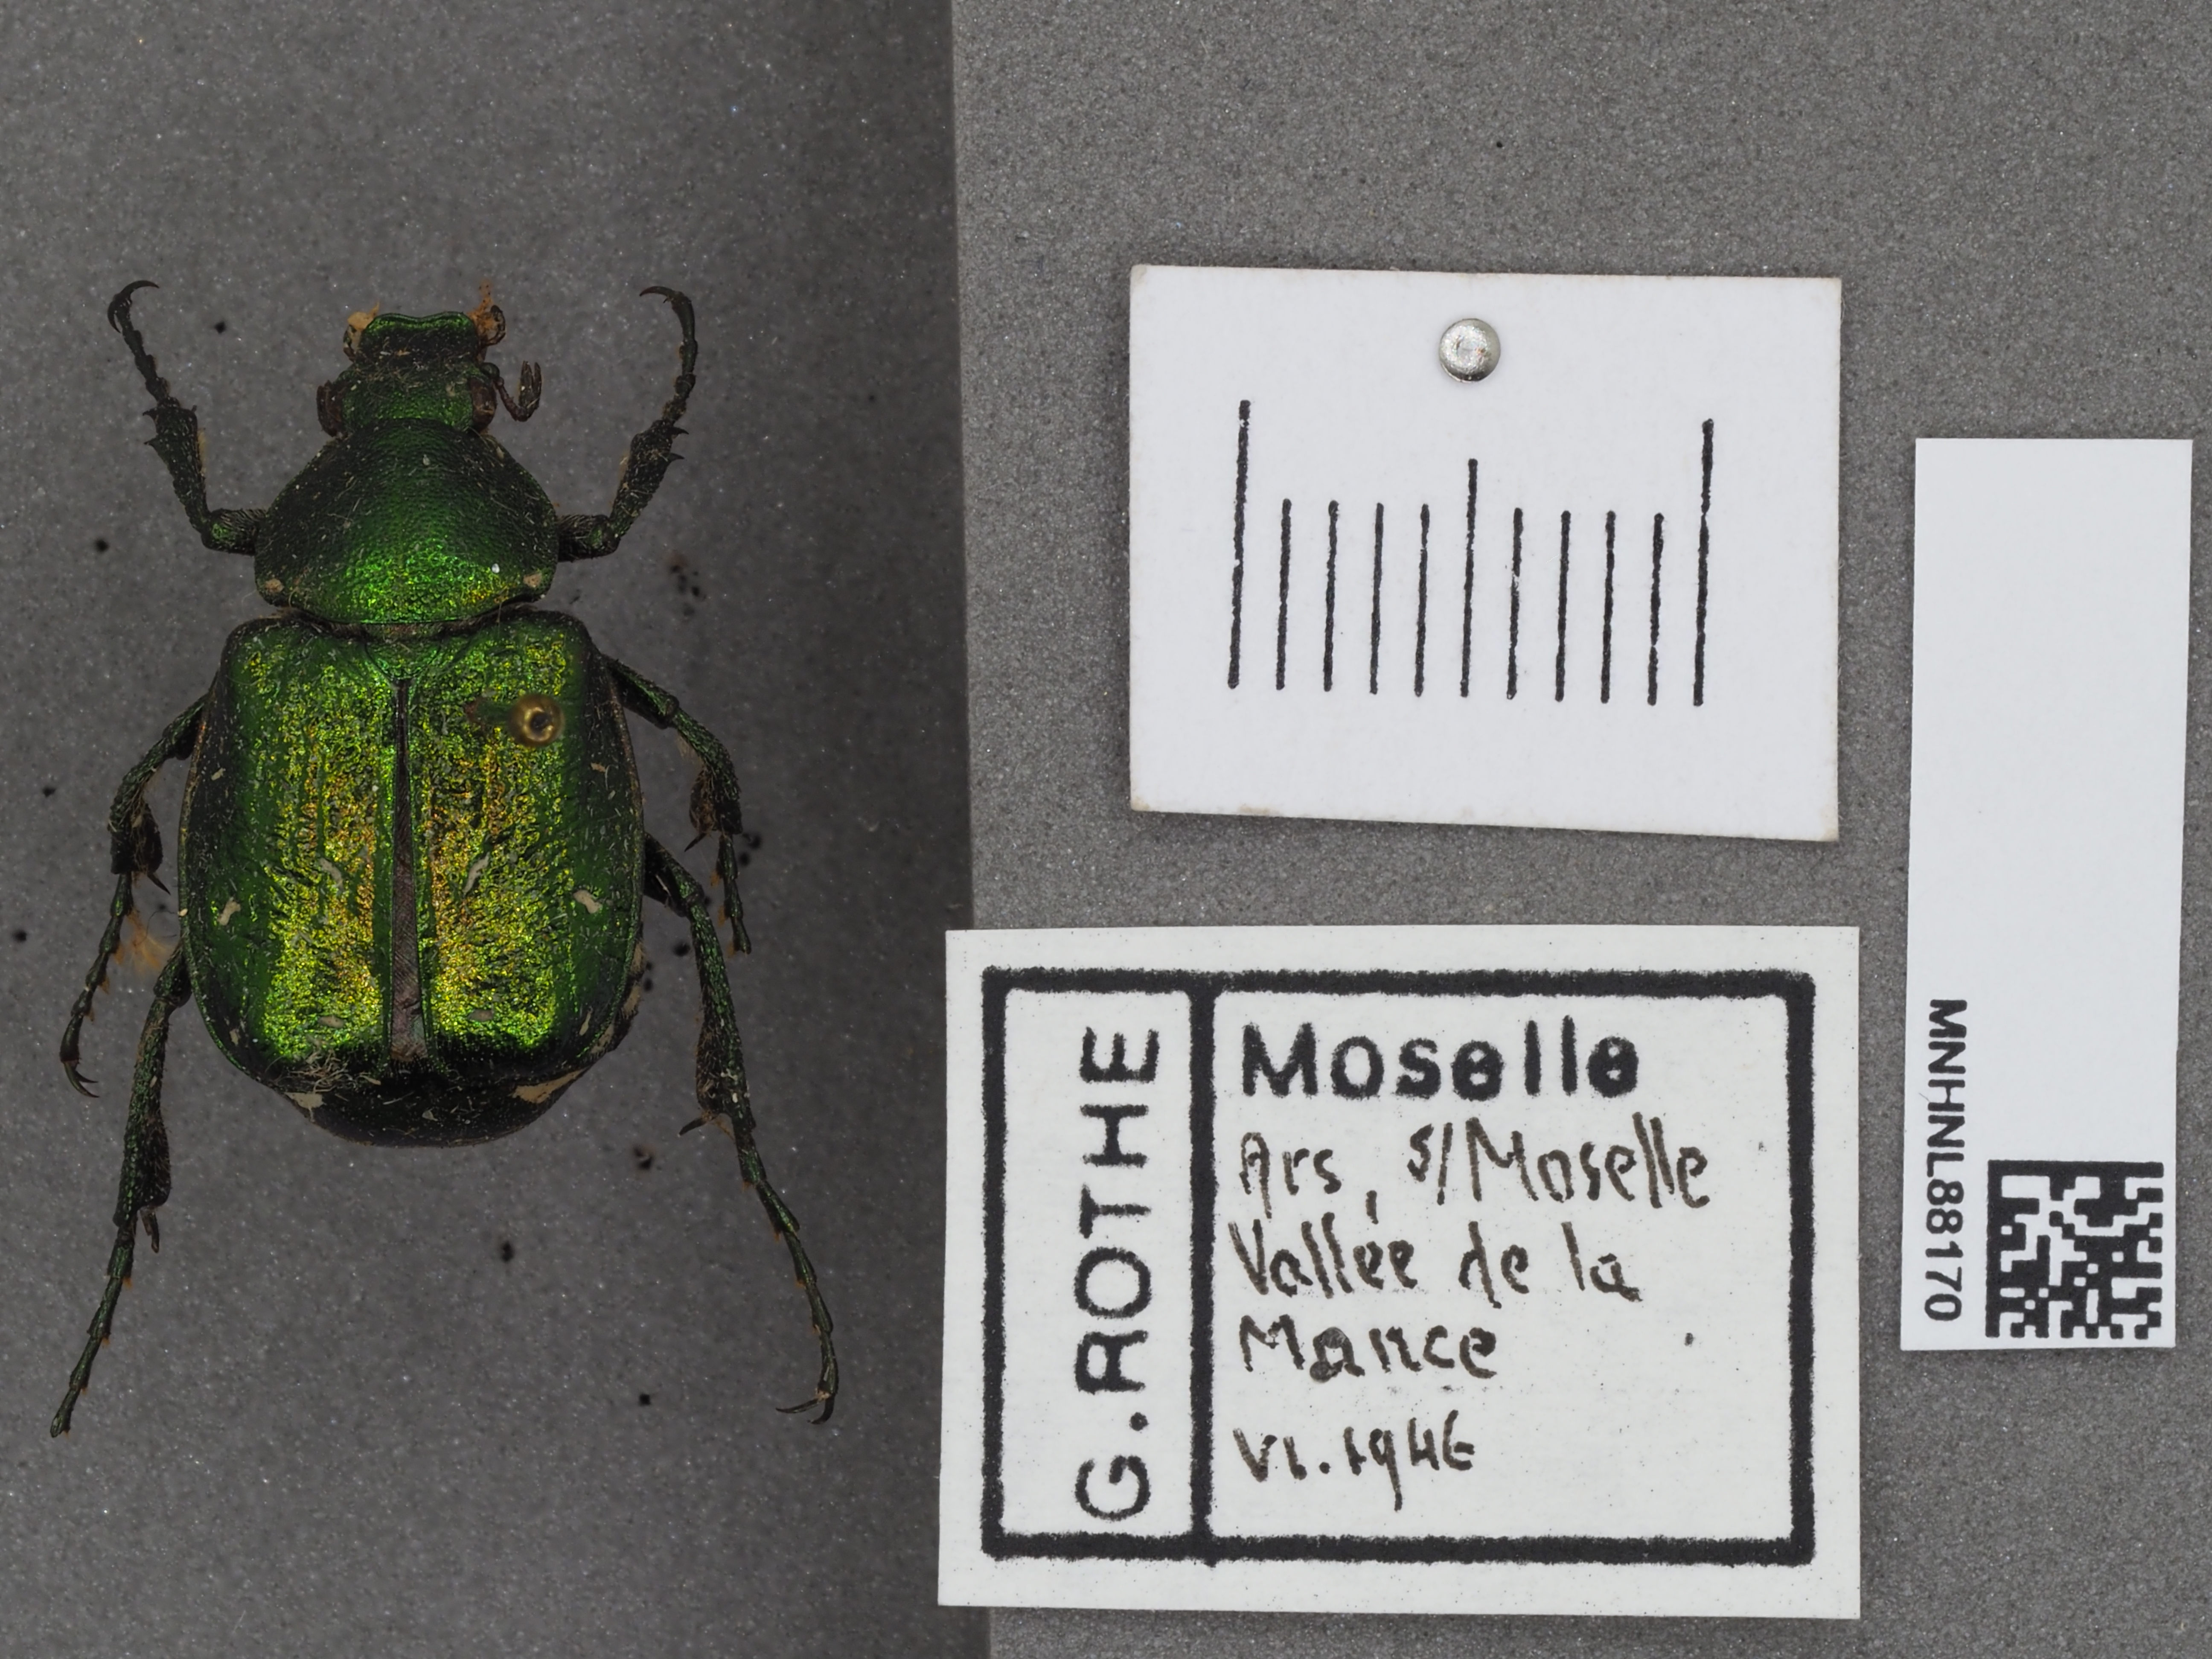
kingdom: Animalia
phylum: Arthropoda
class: Insecta
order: Coleoptera
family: Scarabaeidae
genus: Gnorimus
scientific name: Gnorimus nobilis
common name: Noble chafer
